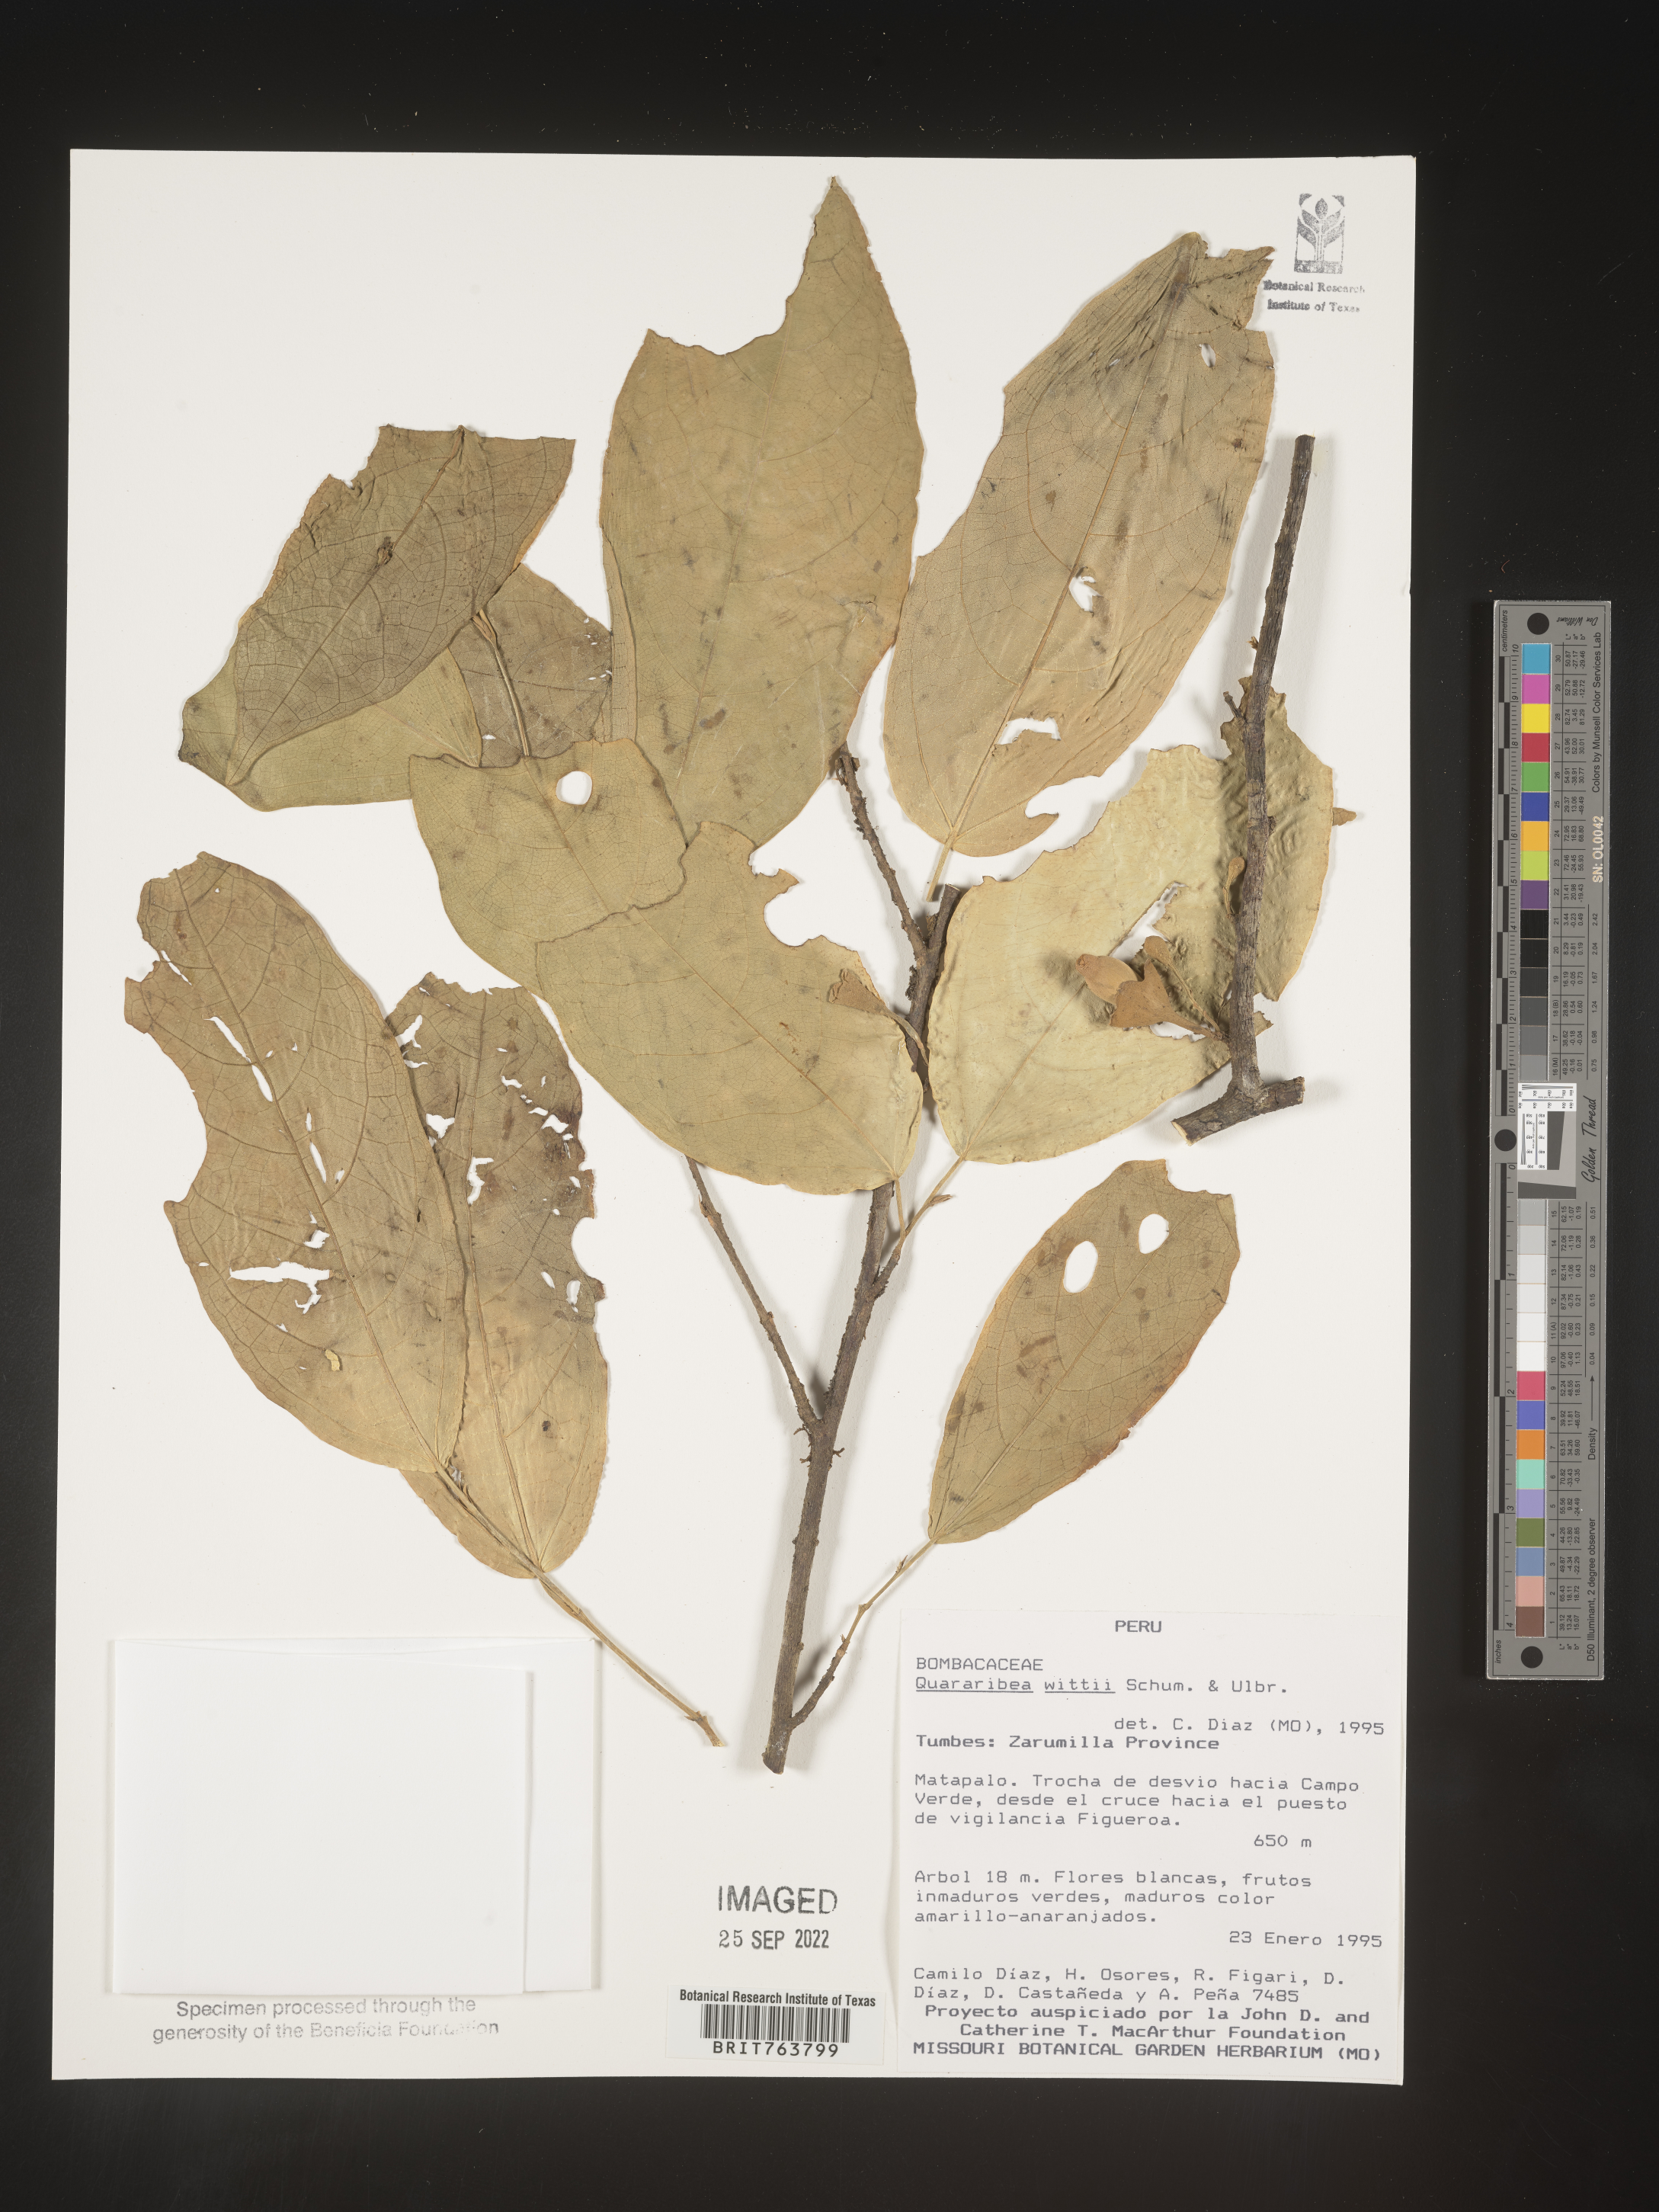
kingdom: Plantae
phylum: Tracheophyta
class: Magnoliopsida
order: Malvales
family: Malvaceae
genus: Quararibea
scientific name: Quararibea
